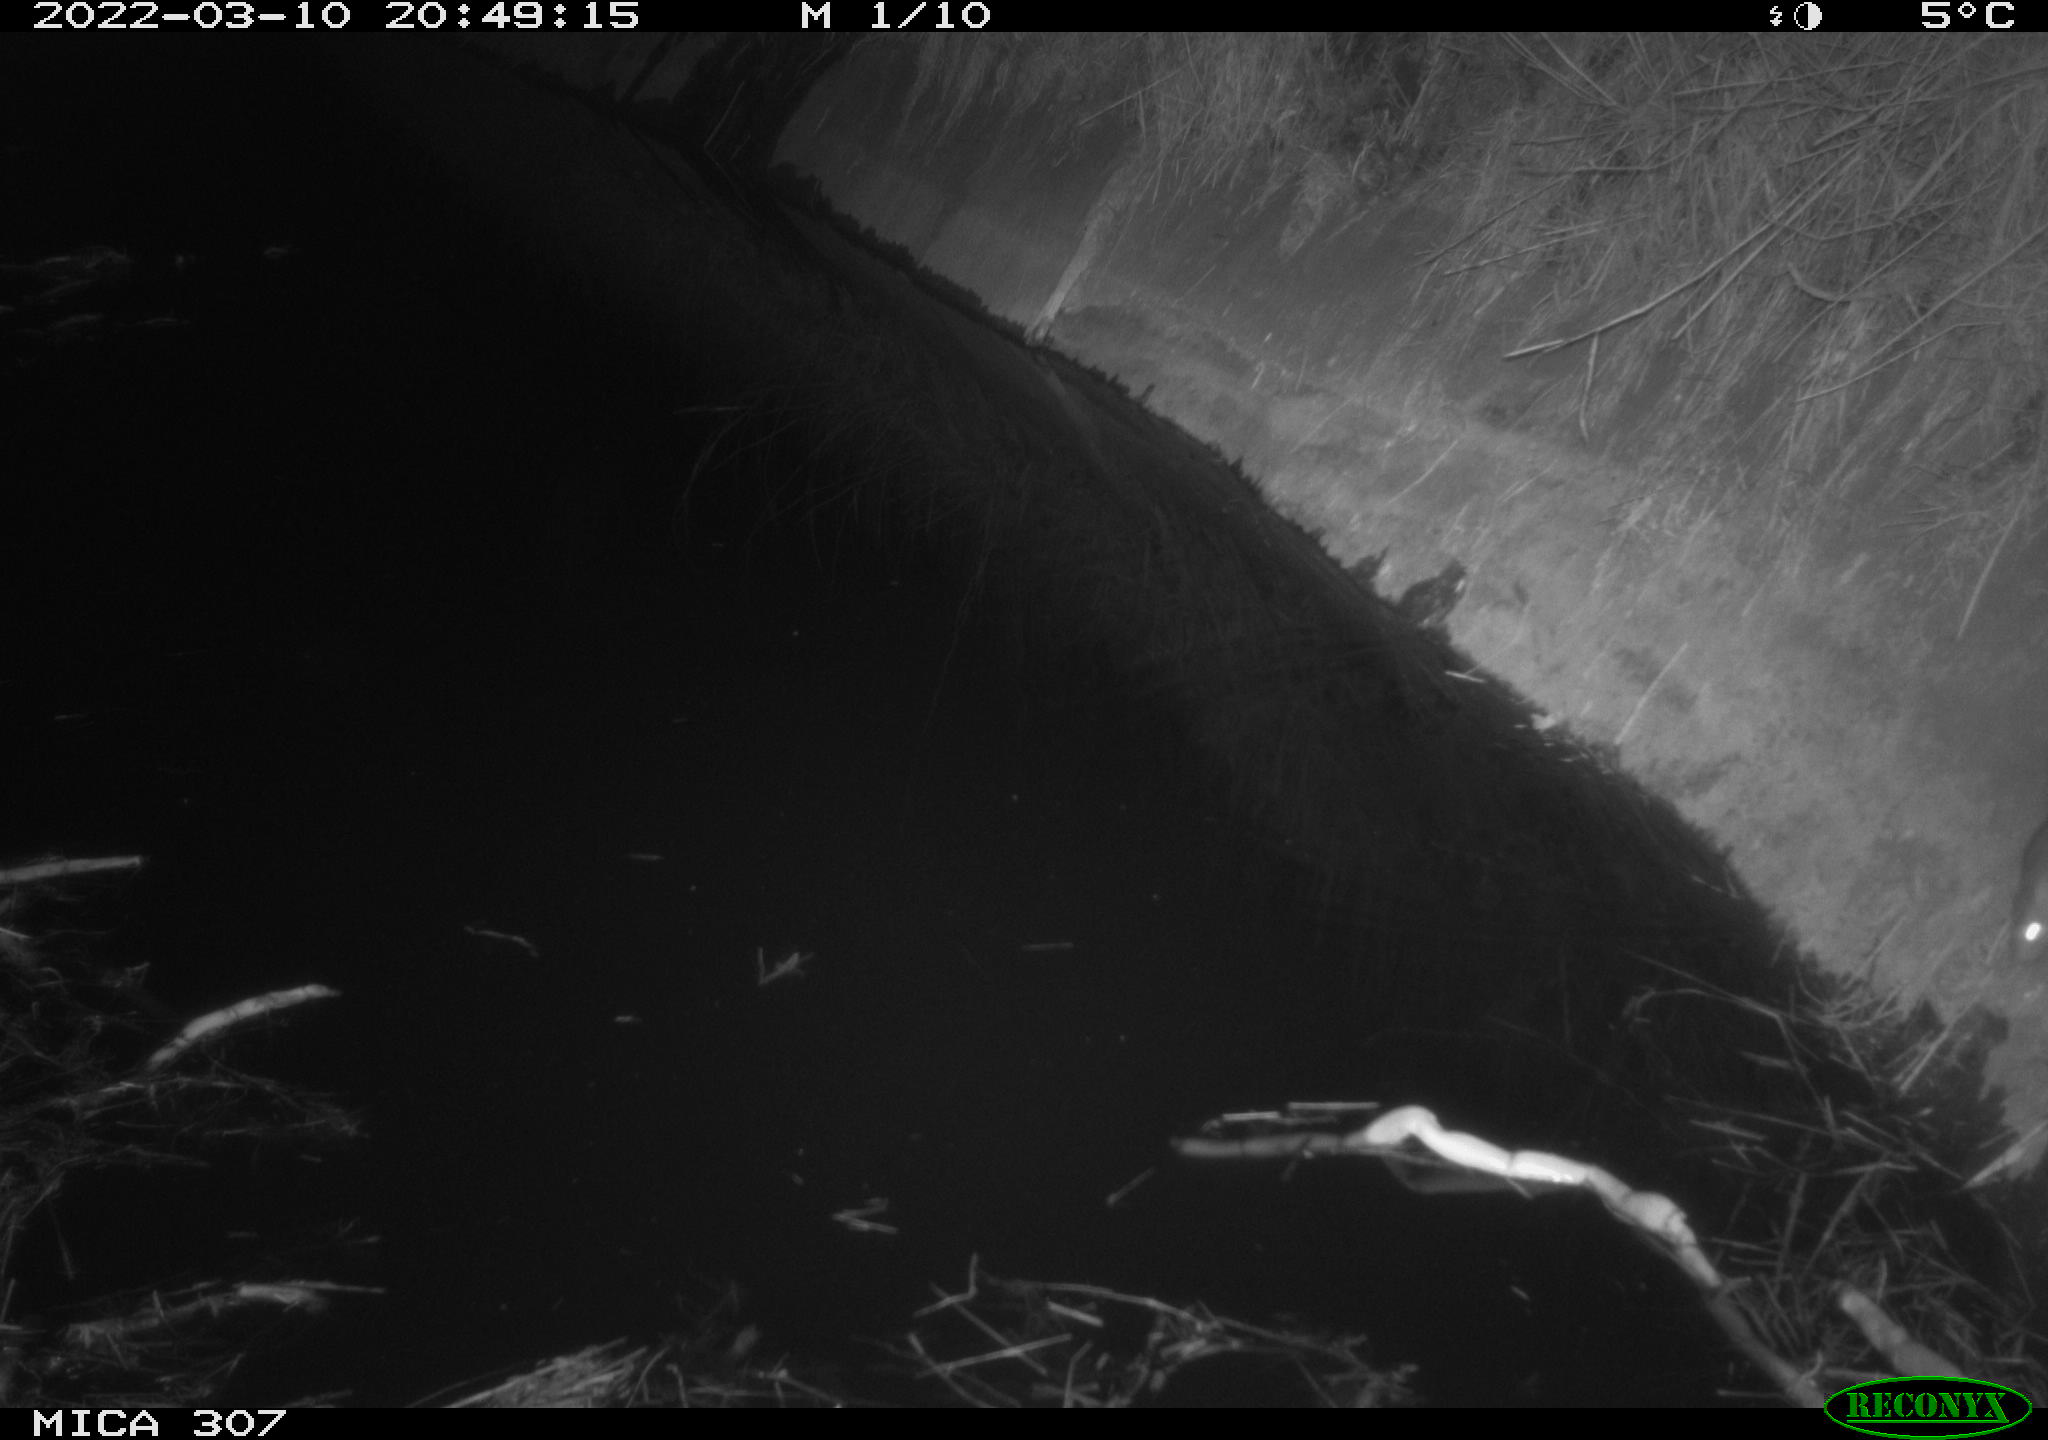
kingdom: Animalia
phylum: Chordata
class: Mammalia
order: Rodentia
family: Muridae
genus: Rattus
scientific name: Rattus norvegicus
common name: Brown rat
